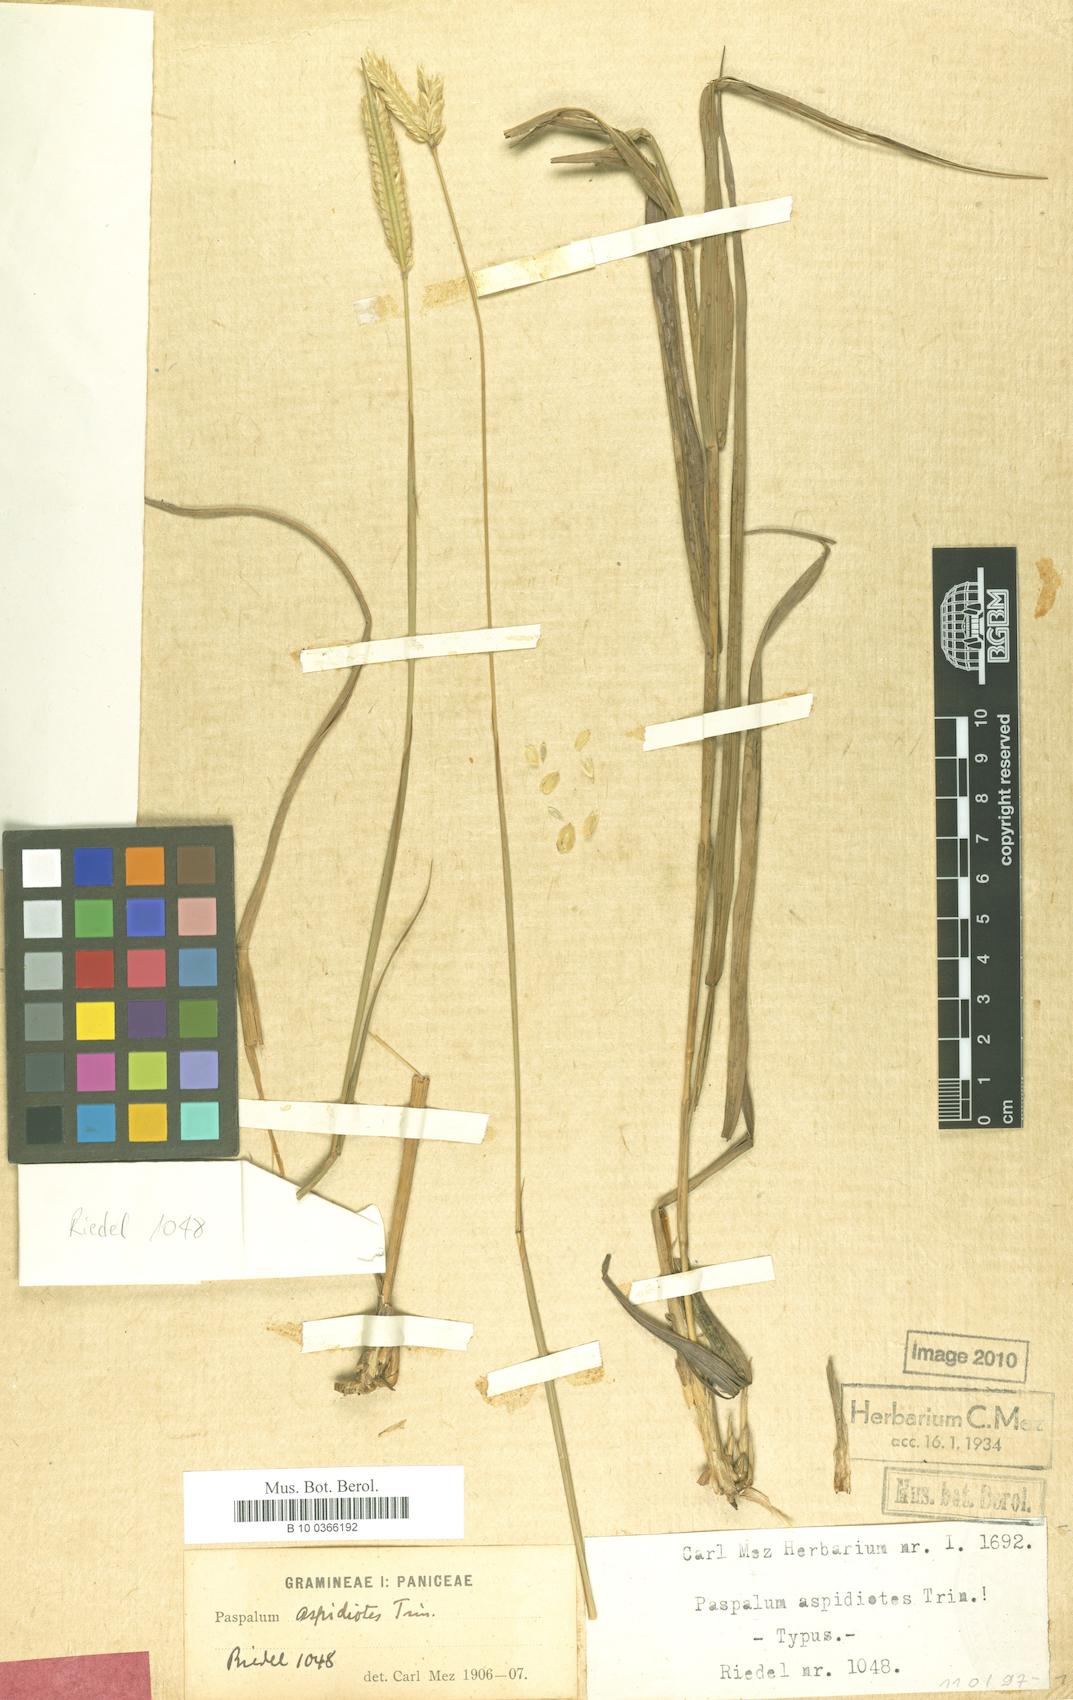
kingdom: Plantae
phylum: Tracheophyta
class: Liliopsida
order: Poales
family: Poaceae
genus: Paspalum
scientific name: Paspalum aspidiotes
